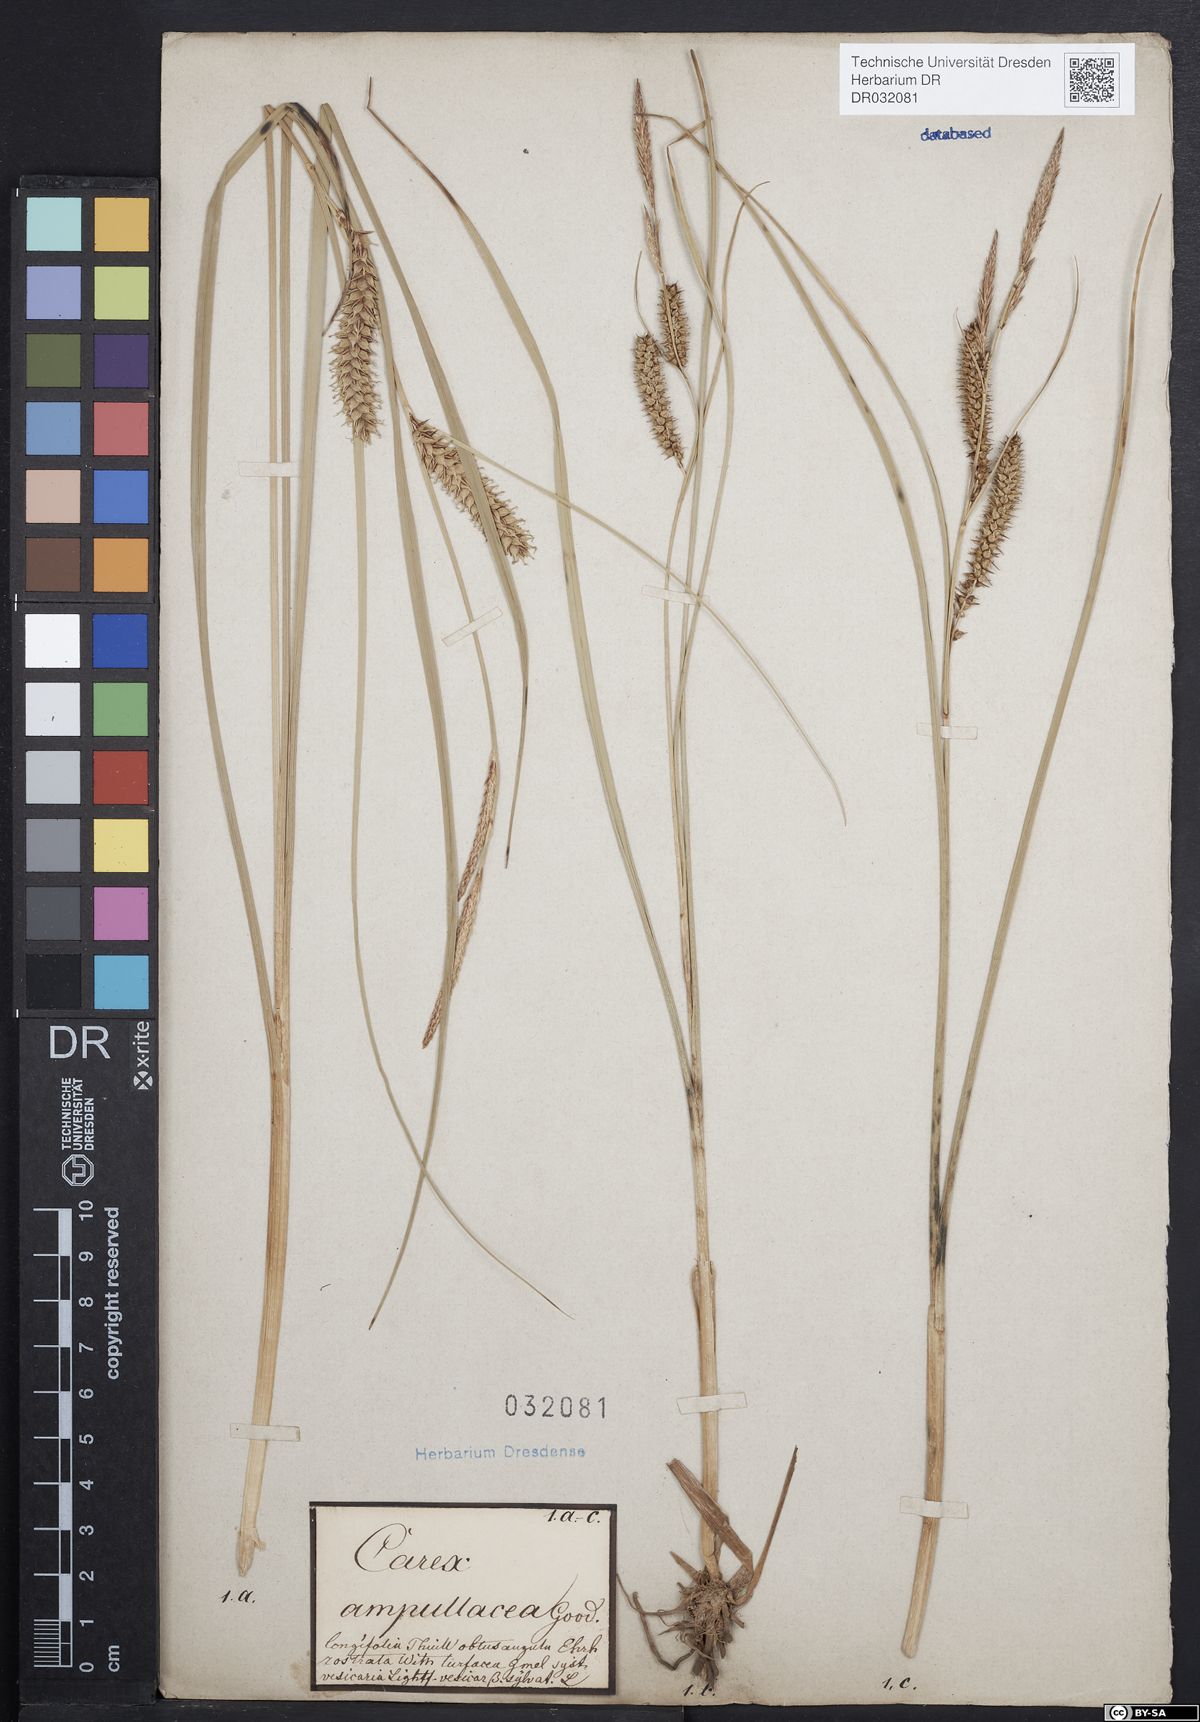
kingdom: Plantae
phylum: Tracheophyta
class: Liliopsida
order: Poales
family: Cyperaceae
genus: Carex
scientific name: Carex rostrata
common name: Bottle sedge
